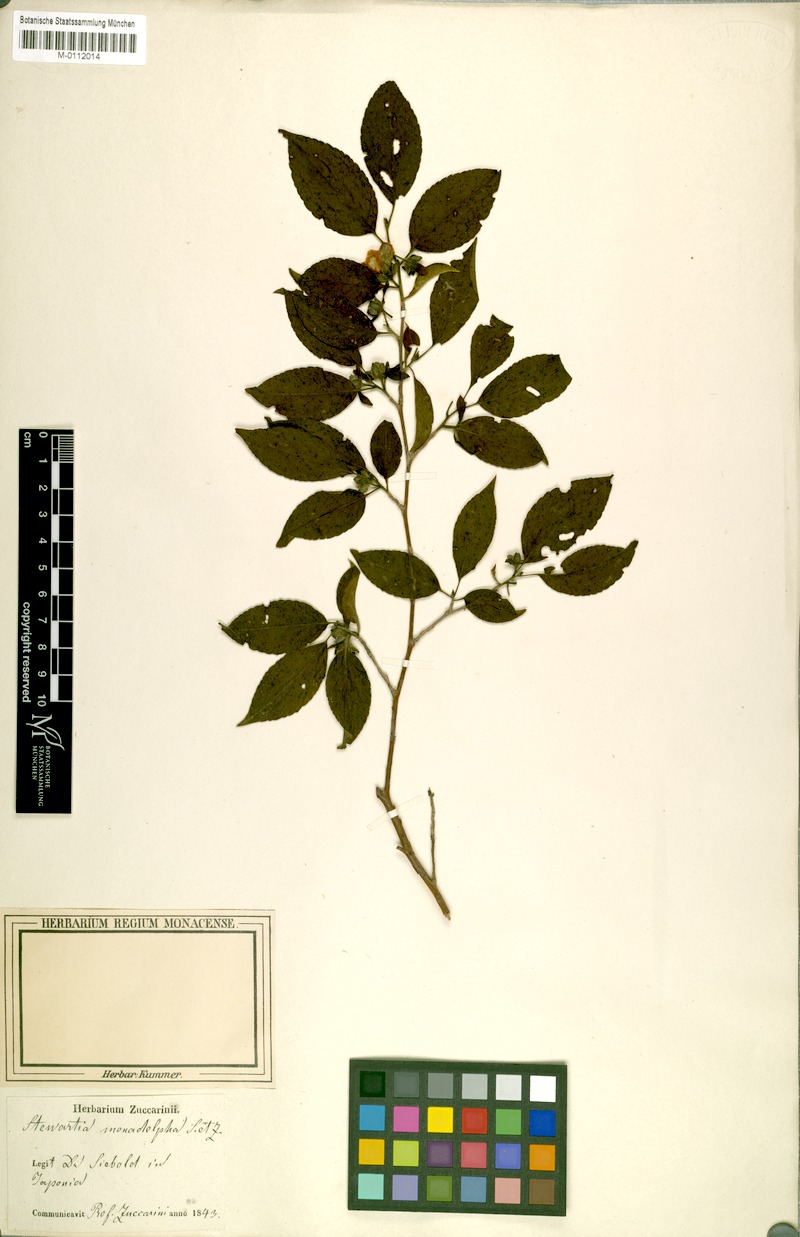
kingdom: Plantae
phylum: Tracheophyta
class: Magnoliopsida
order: Ericales
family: Theaceae
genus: Stewartia
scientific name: Stewartia monadelpha
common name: Tall stewartia
